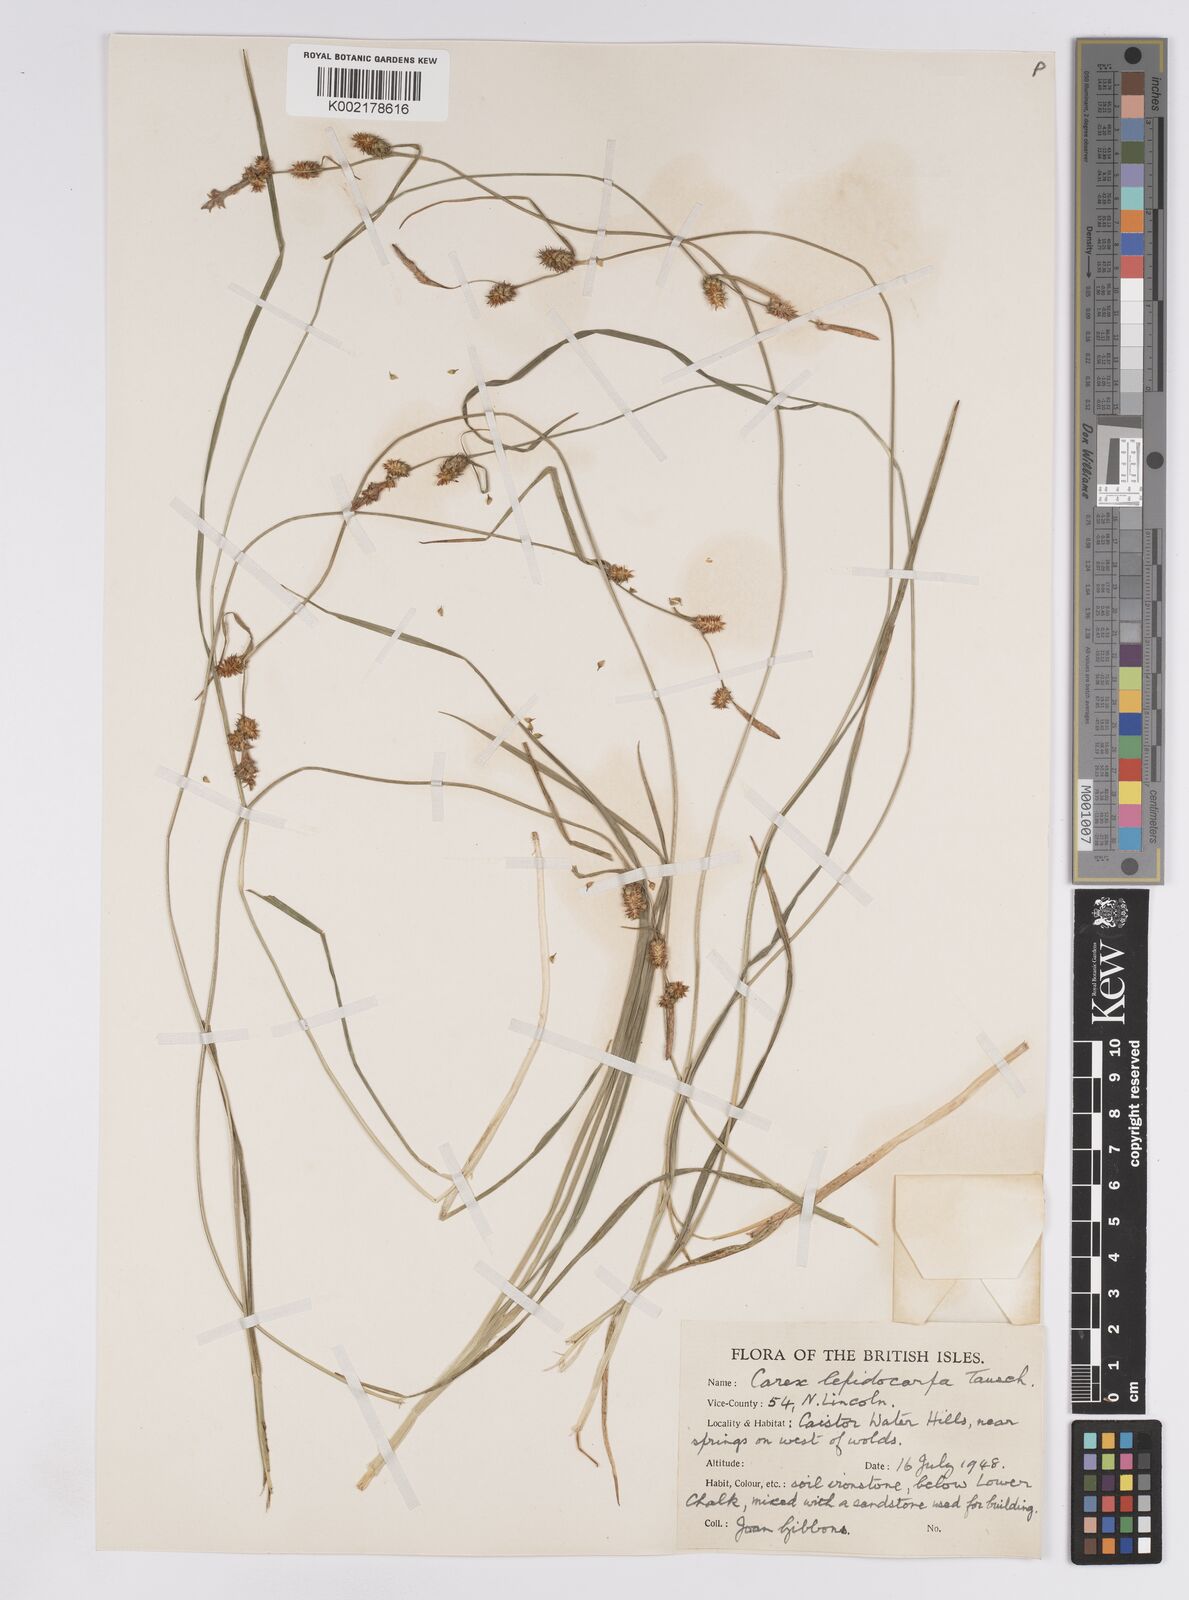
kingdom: Plantae
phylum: Tracheophyta
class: Liliopsida
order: Poales
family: Cyperaceae
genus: Carex
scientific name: Carex lepidocarpa
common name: Long-stalked yellow-sedge
